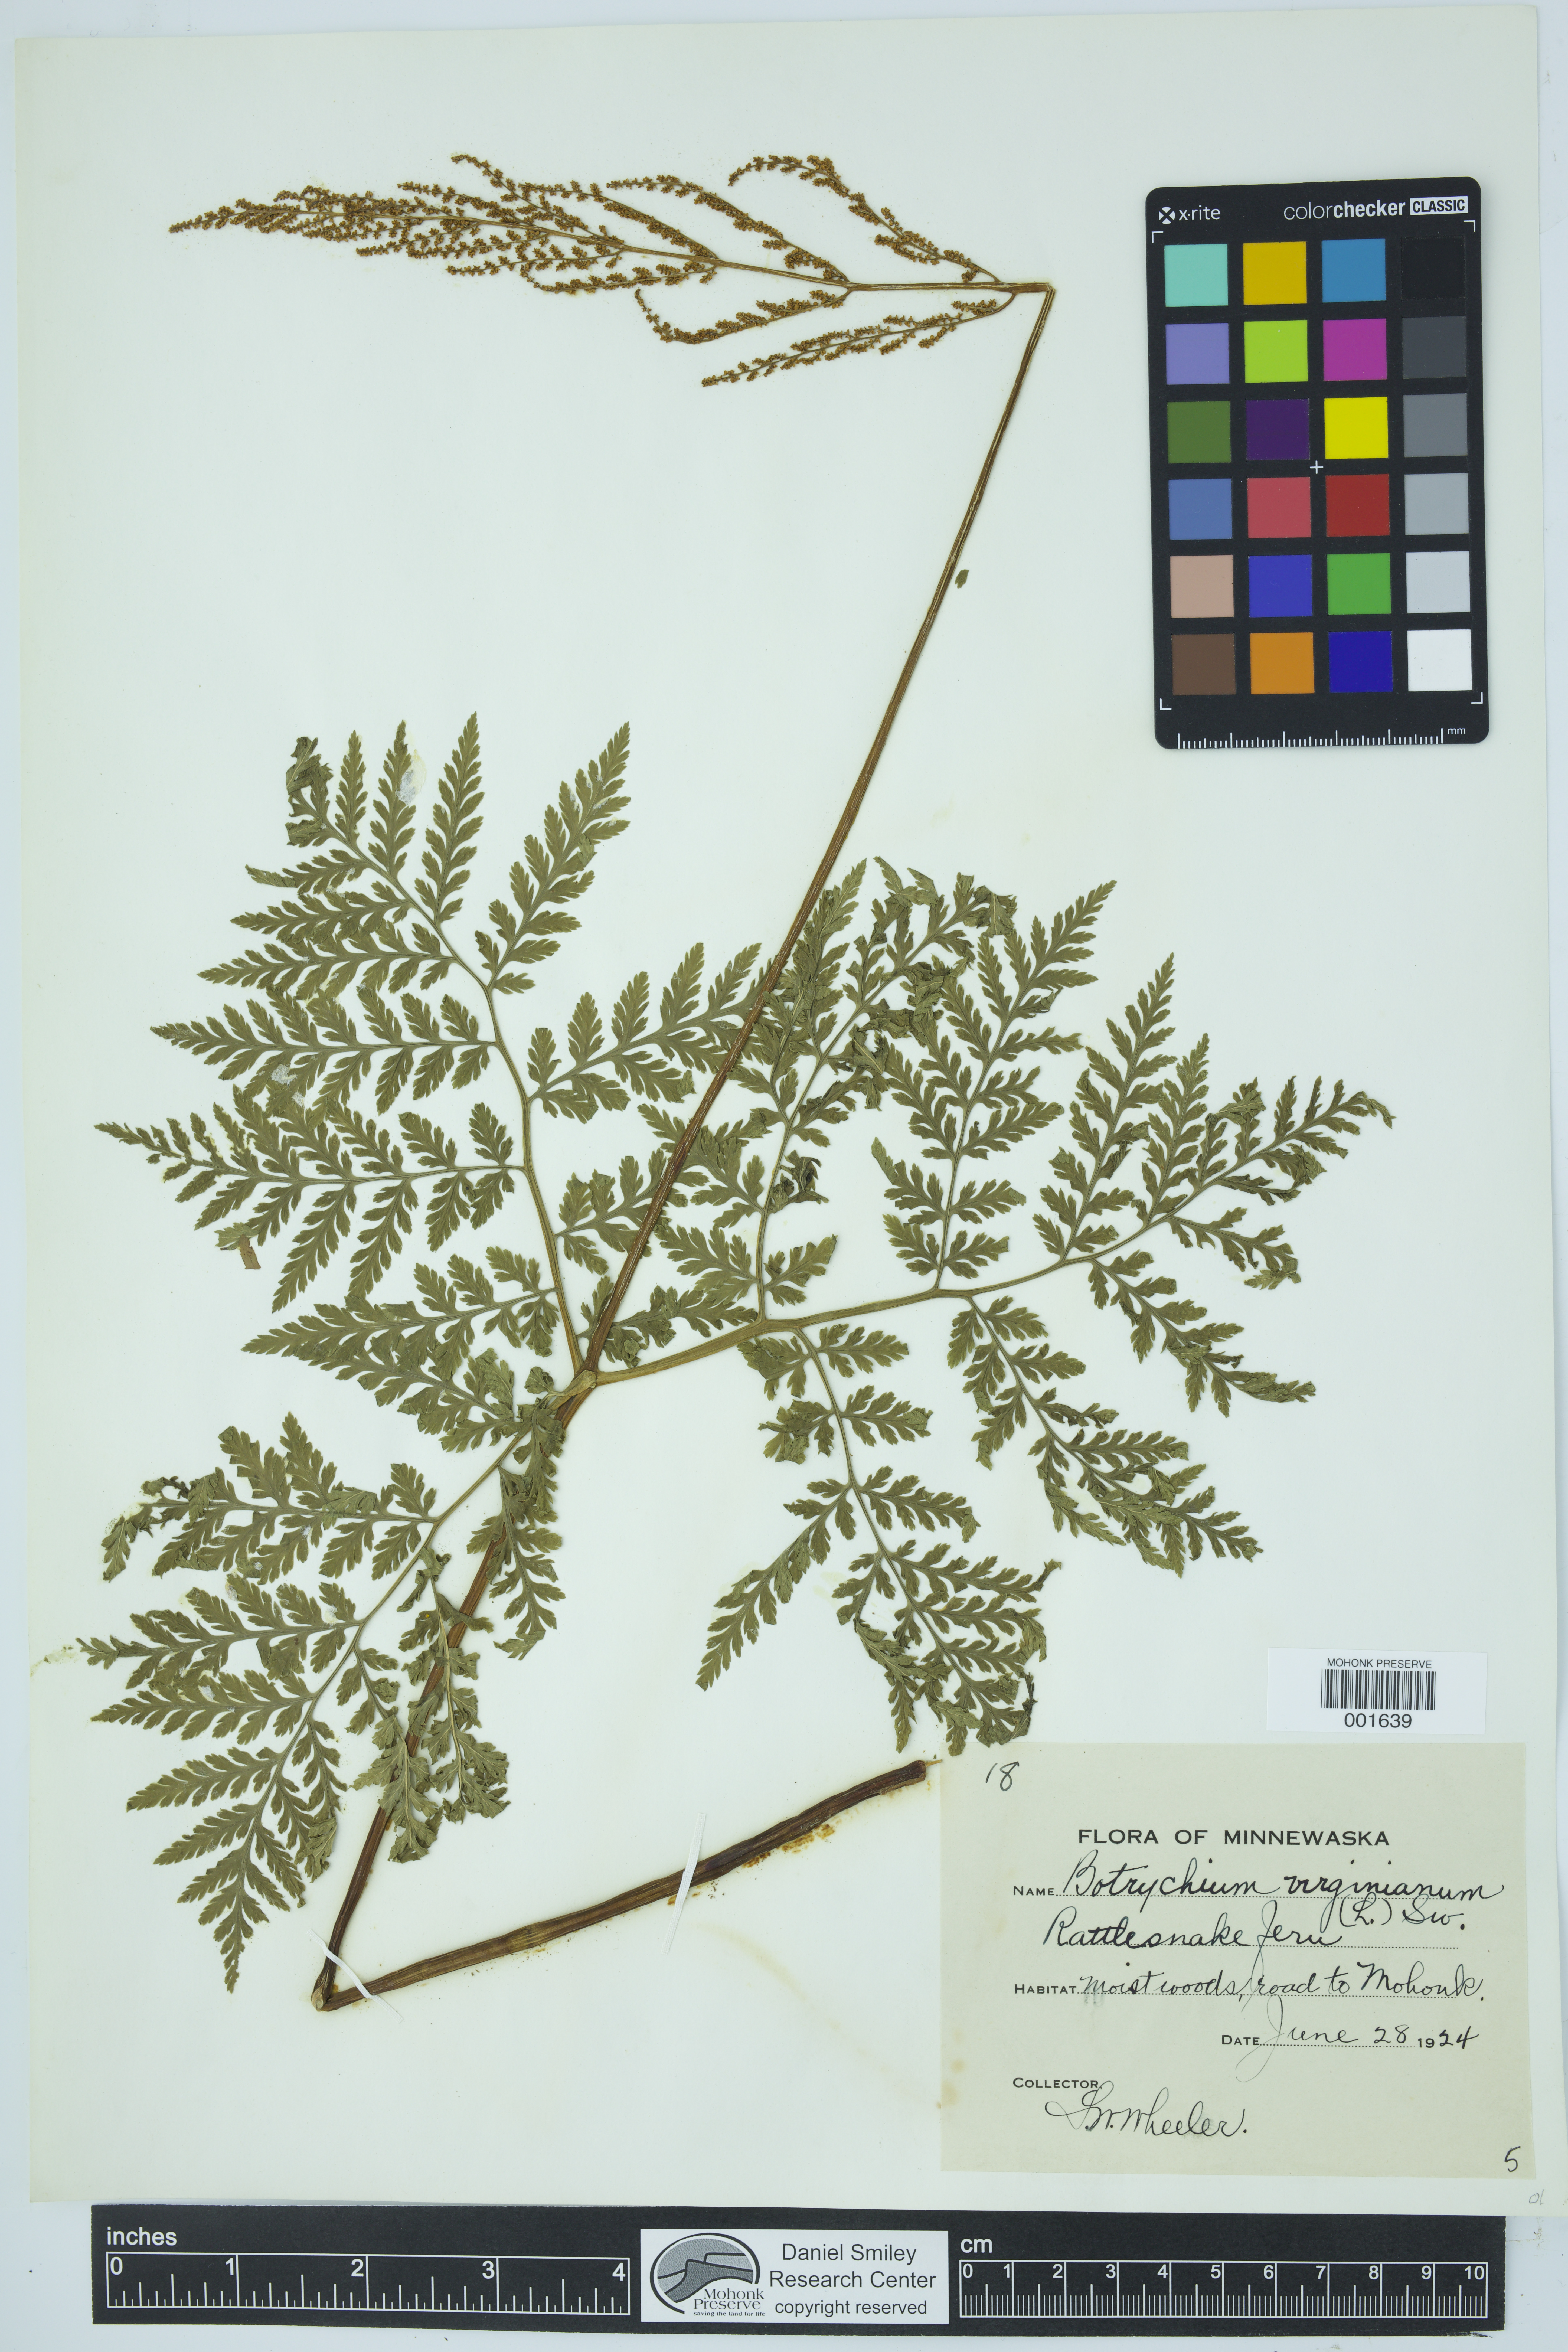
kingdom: Plantae
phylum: Tracheophyta
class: Polypodiopsida
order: Ophioglossales
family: Ophioglossaceae
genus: Botrypus
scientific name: Botrypus virginianus
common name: Common grapefern
